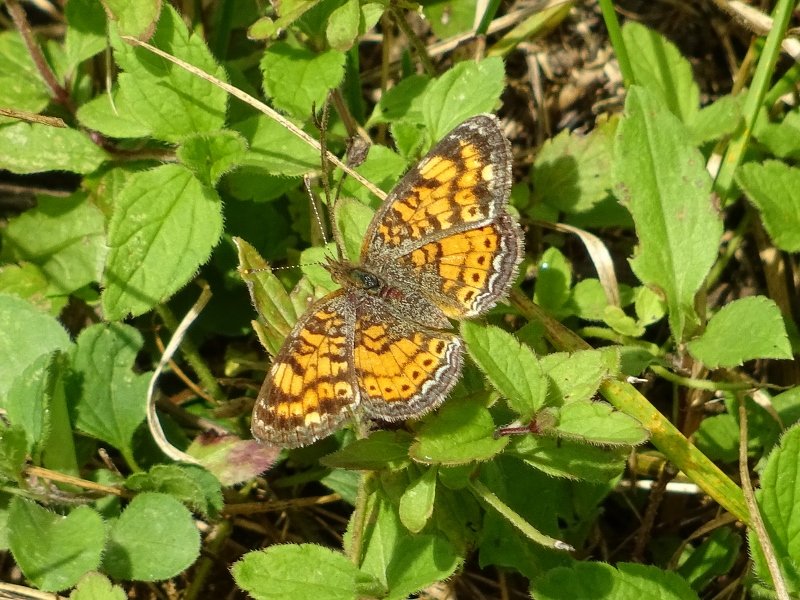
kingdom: Animalia
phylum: Arthropoda
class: Insecta
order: Lepidoptera
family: Nymphalidae
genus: Phyciodes
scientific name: Phyciodes tharos
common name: Northern Crescent
